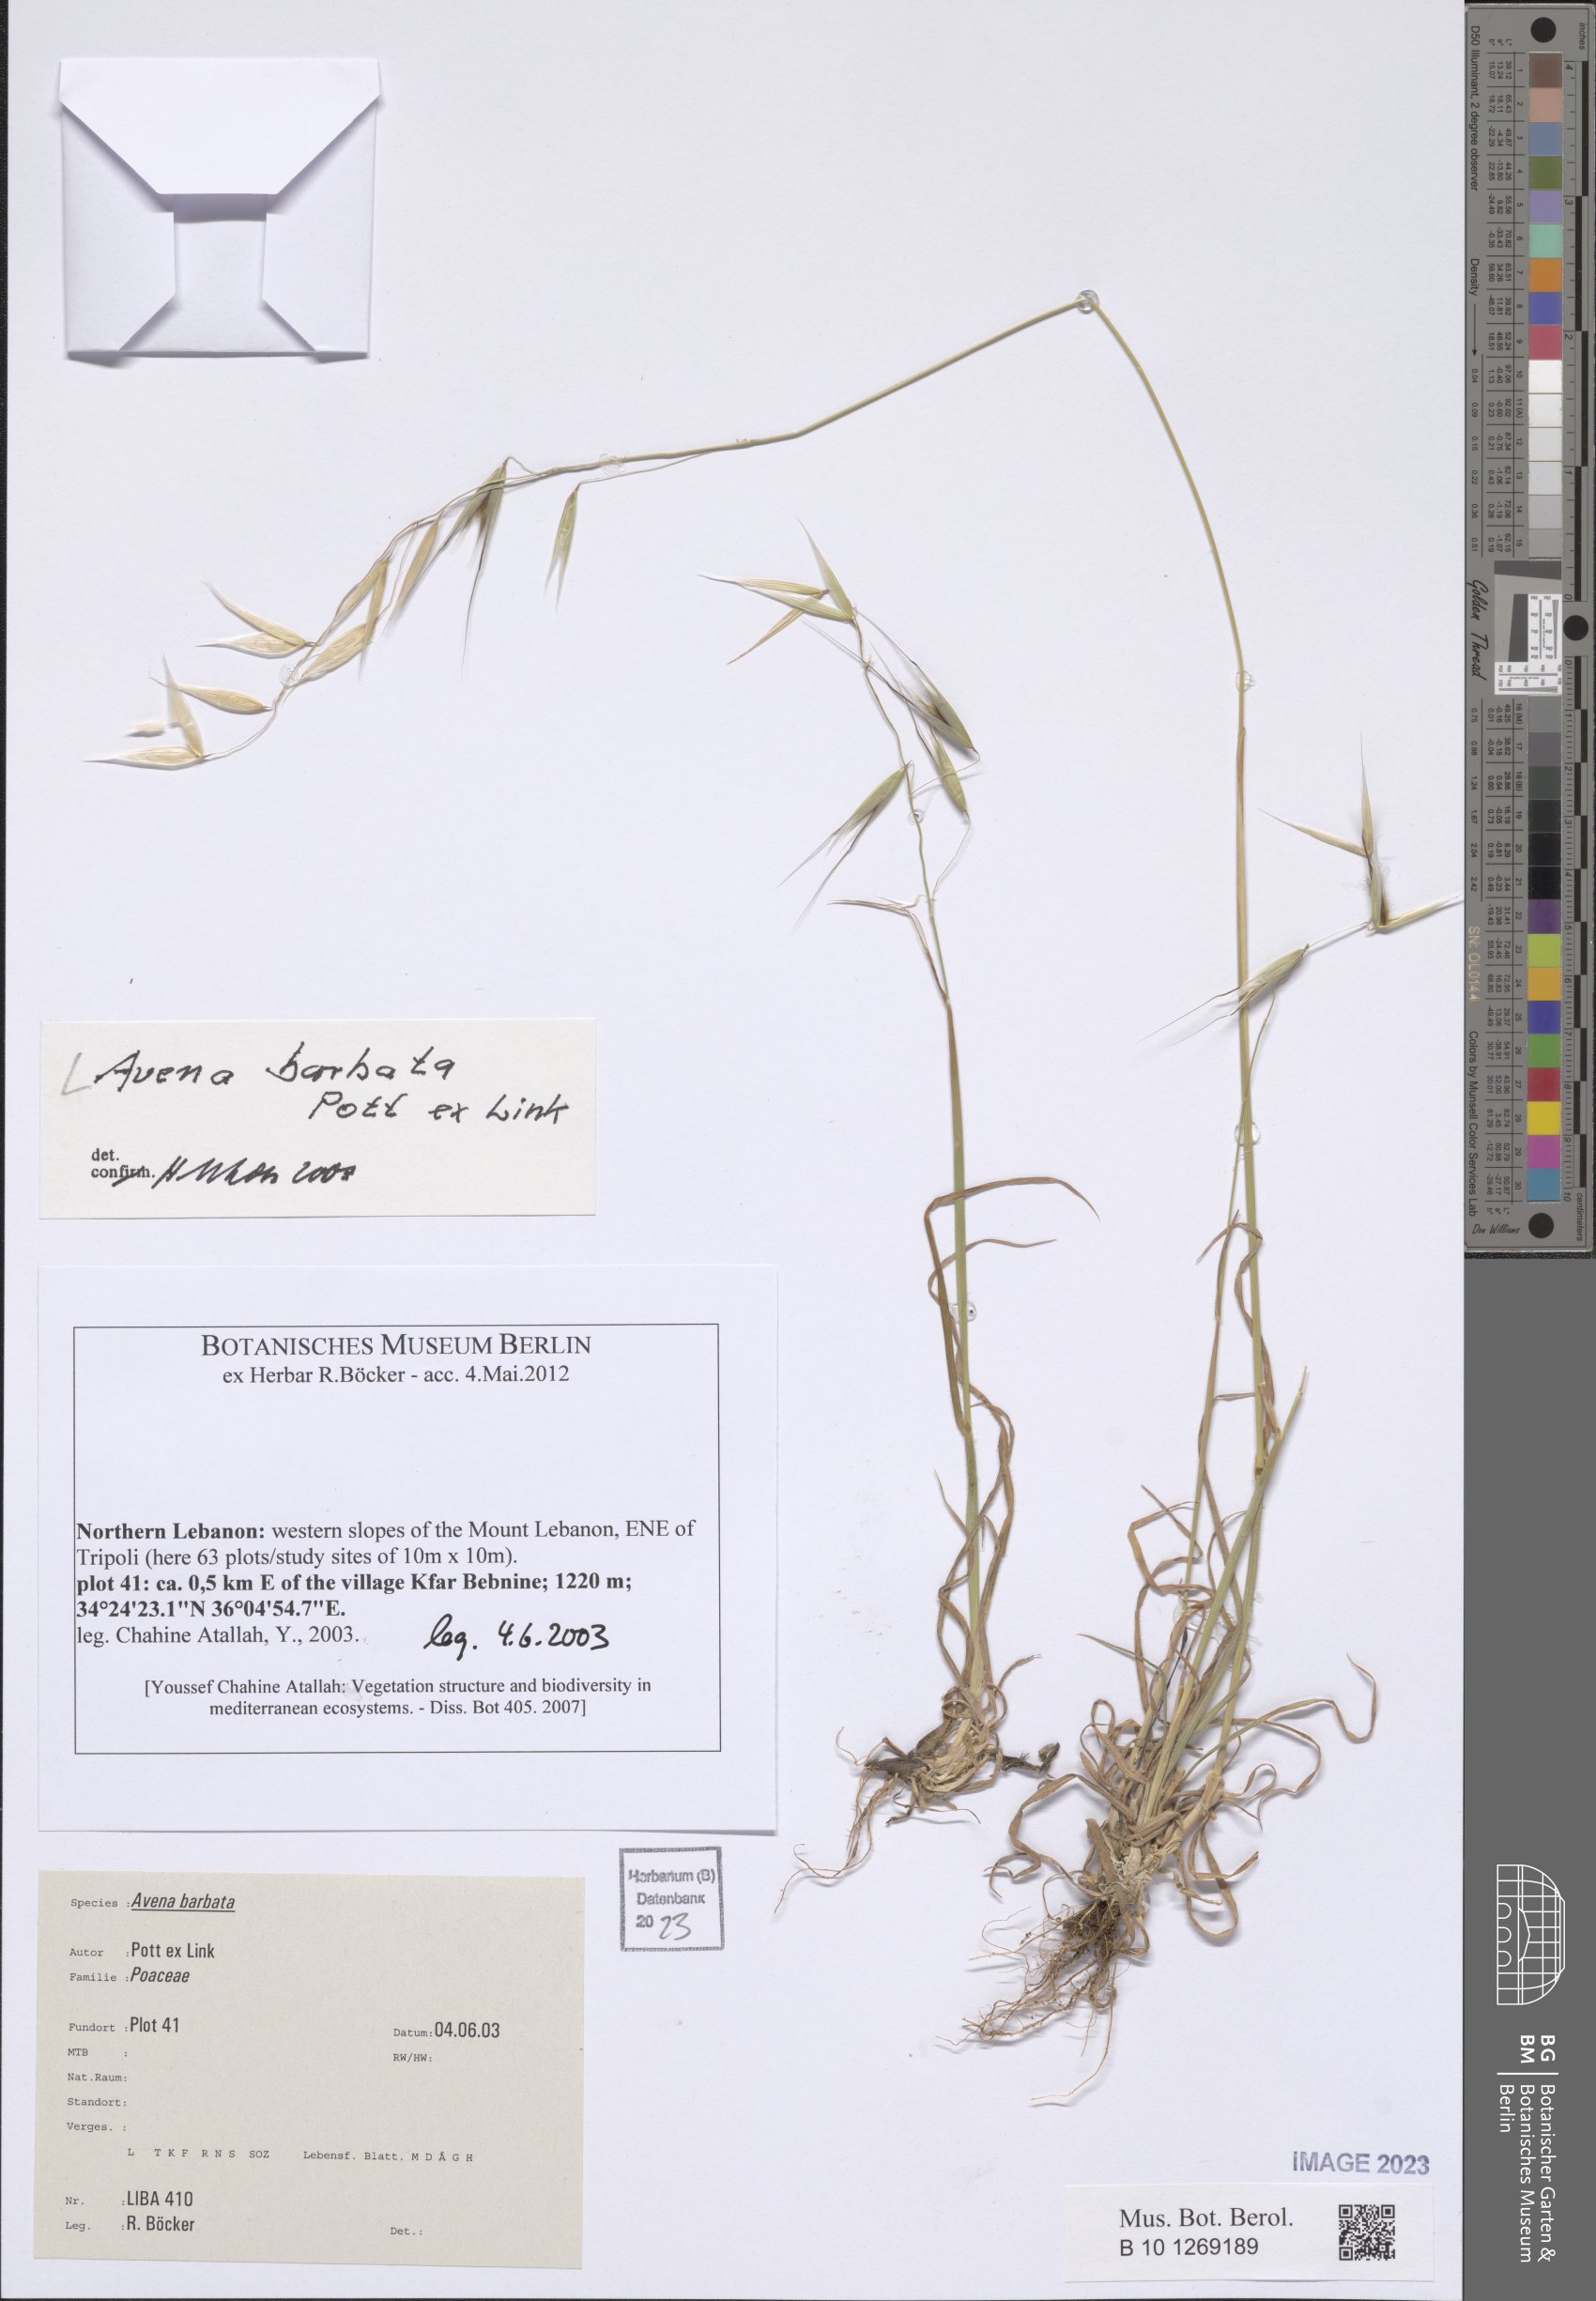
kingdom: Plantae
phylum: Tracheophyta
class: Liliopsida
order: Poales
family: Poaceae
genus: Avena
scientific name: Avena barbata
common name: Slender oat
